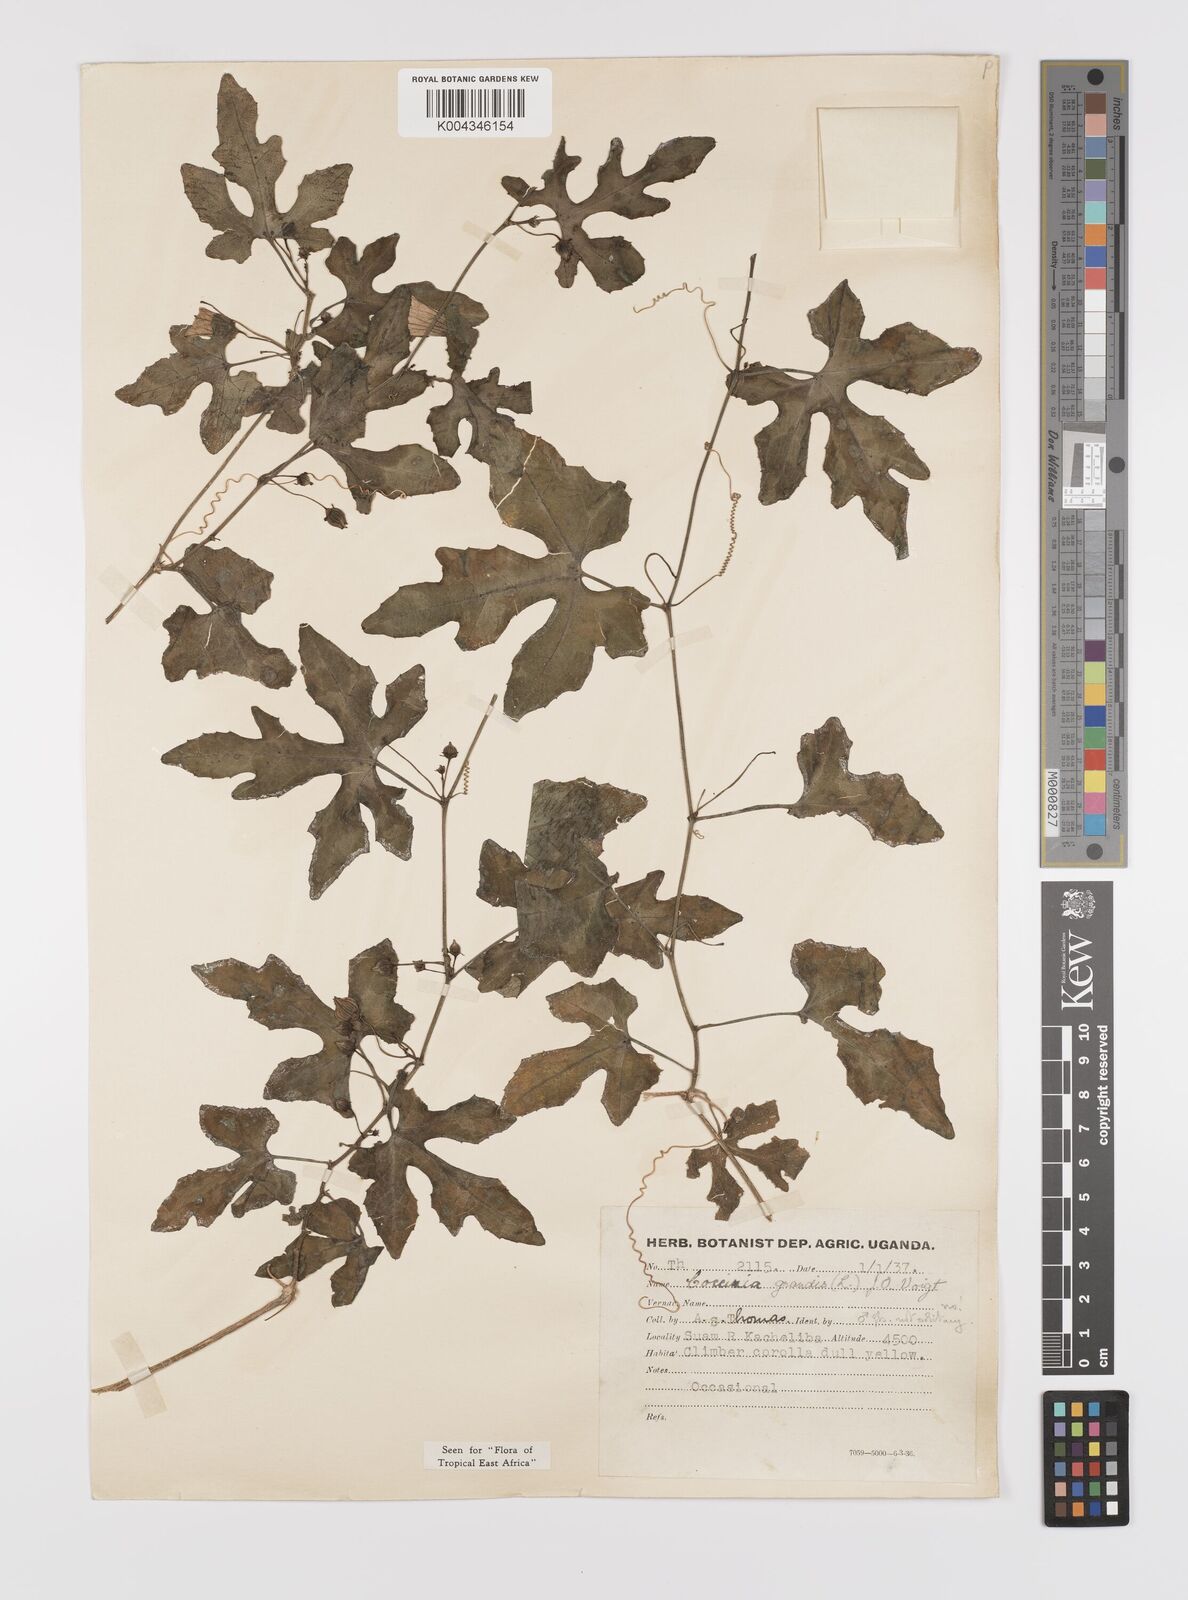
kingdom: Plantae
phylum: Tracheophyta
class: Magnoliopsida
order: Cucurbitales
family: Cucurbitaceae
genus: Coccinia
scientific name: Coccinia grandis
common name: Ivy gourd
